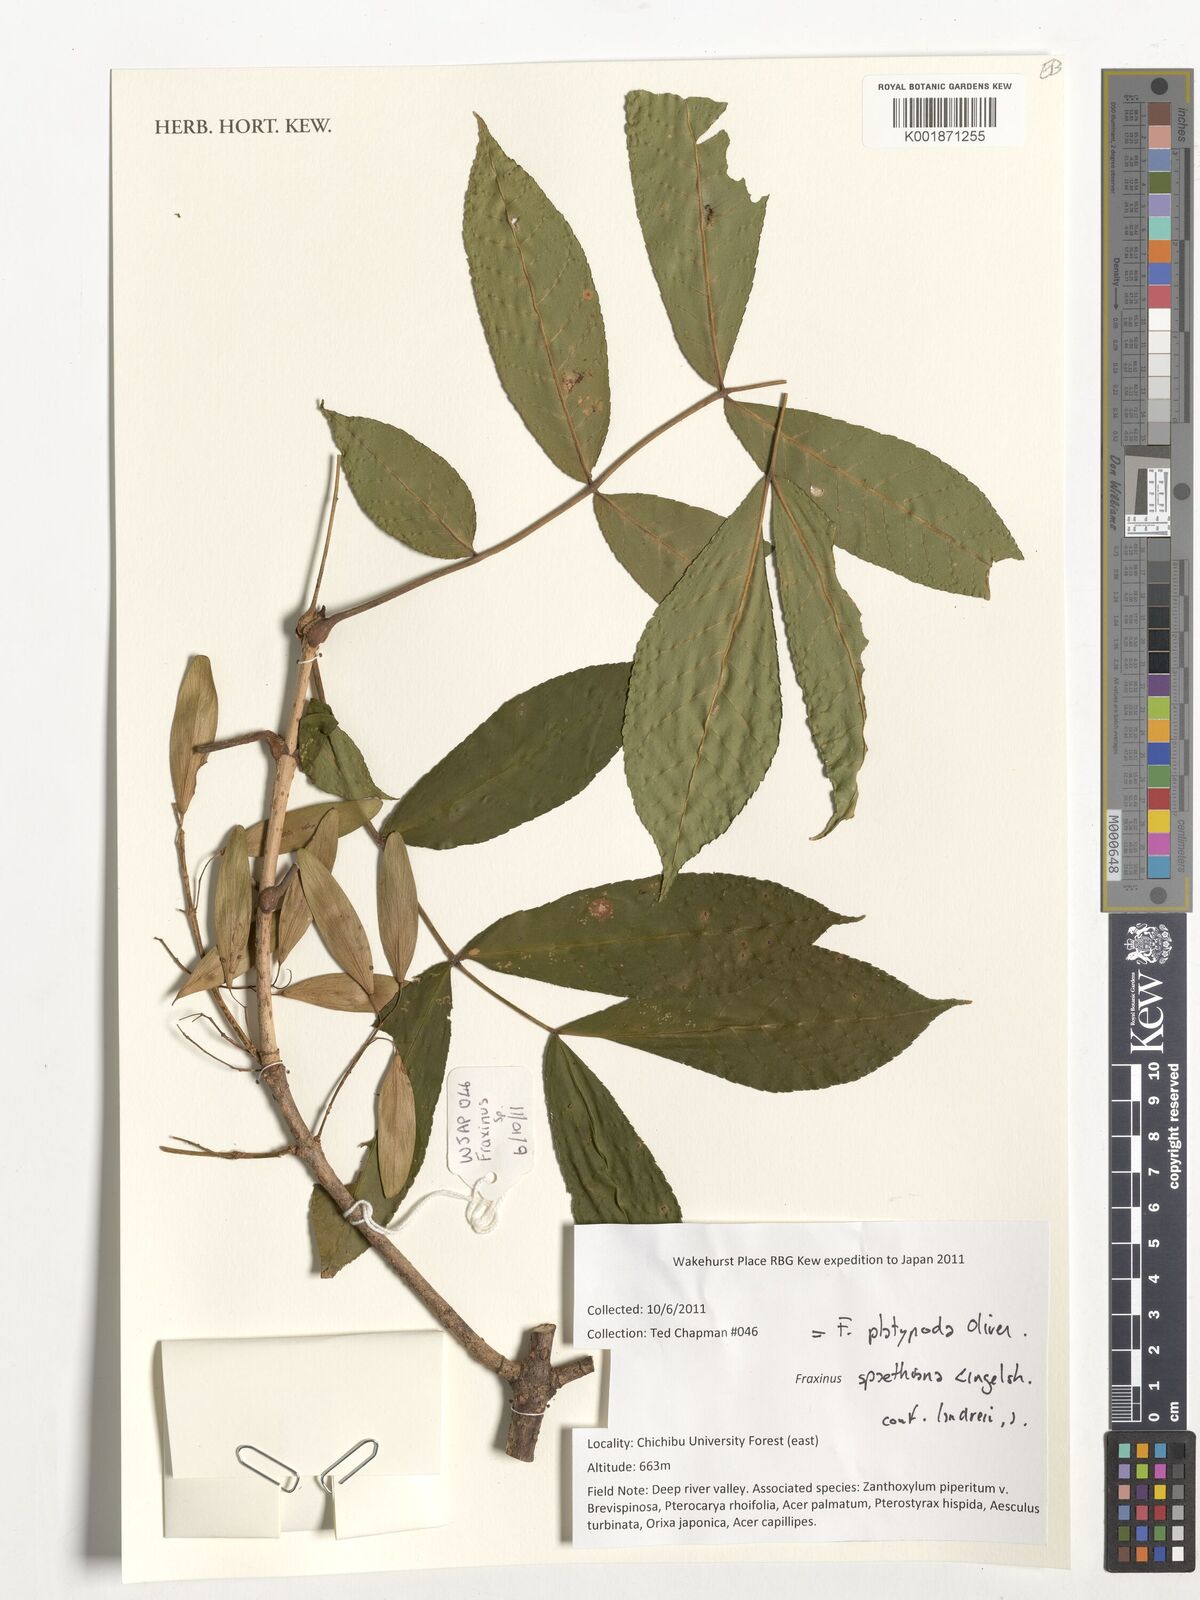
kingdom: Plantae
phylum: Tracheophyta
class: Magnoliopsida
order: Lamiales
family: Oleaceae
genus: Fraxinus
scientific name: Fraxinus platypoda
